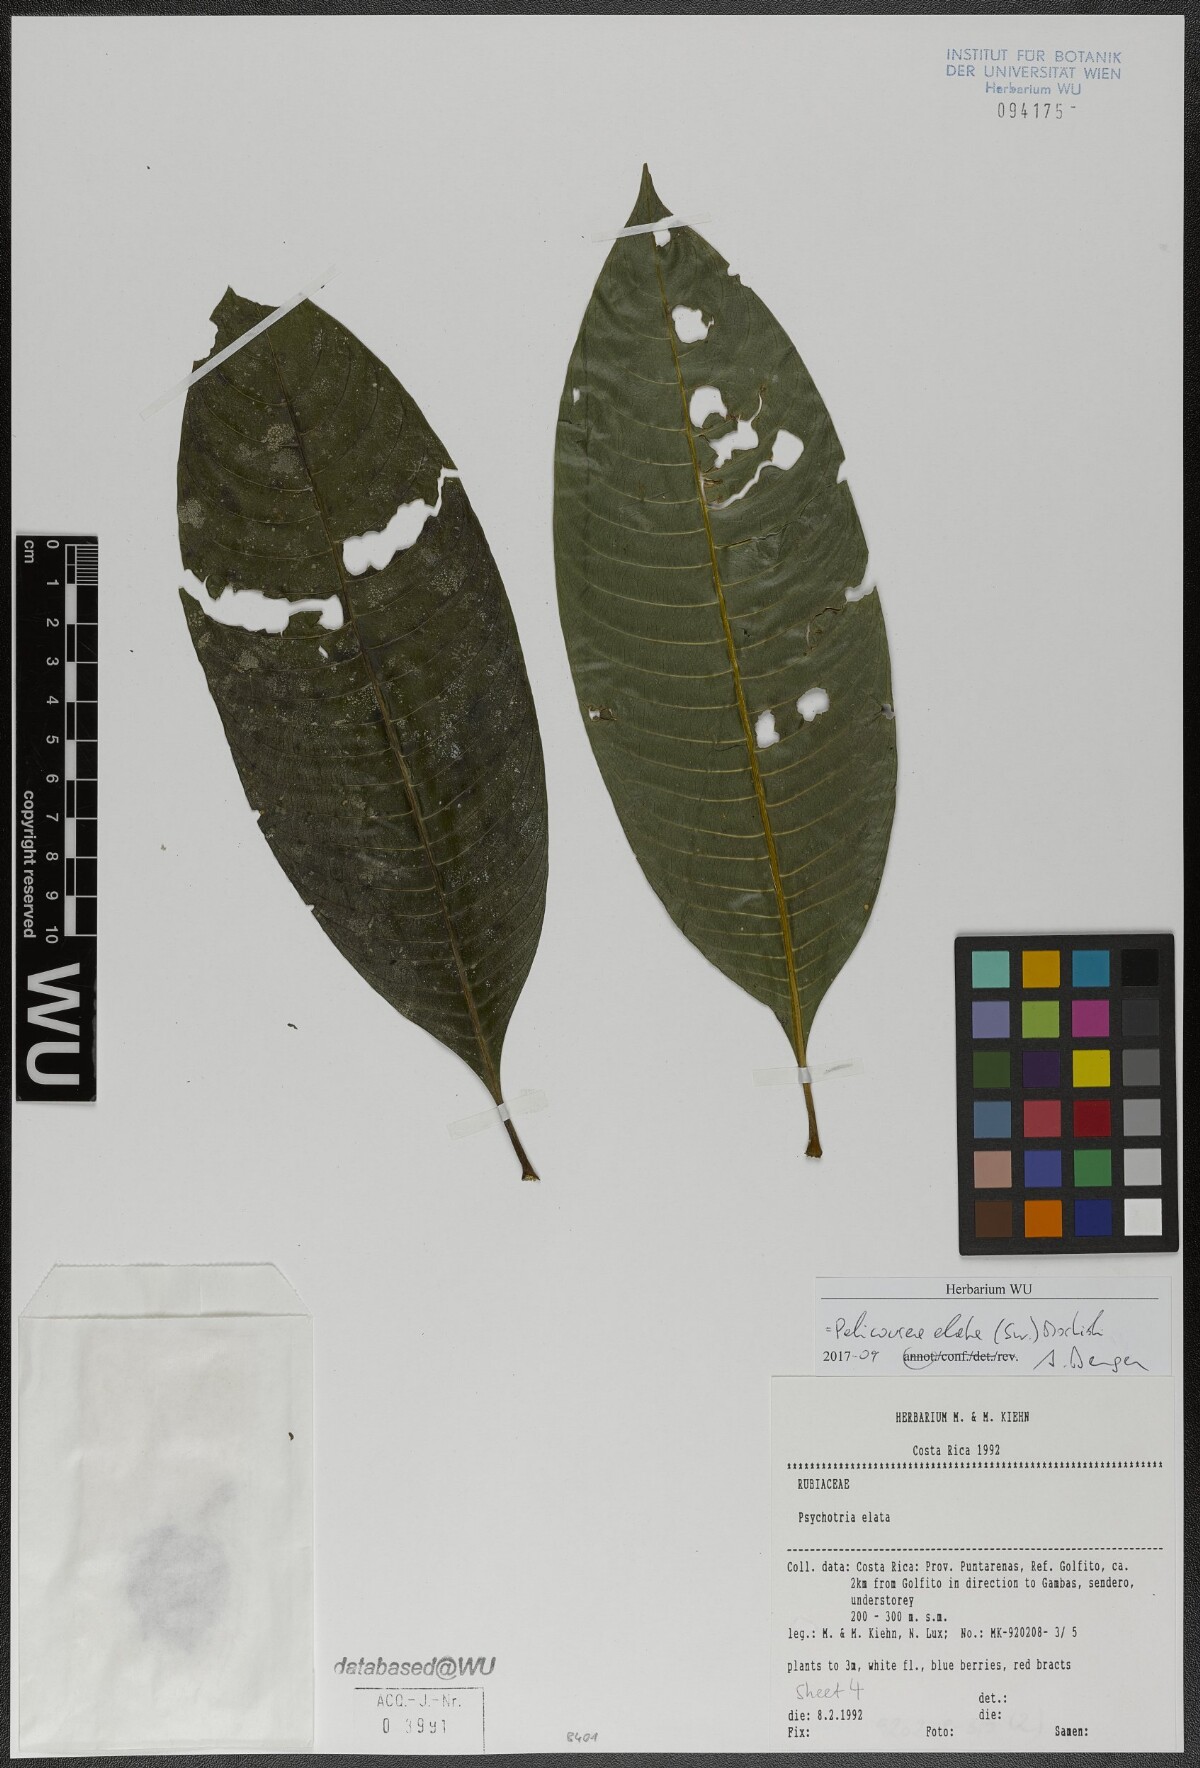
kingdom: Plantae
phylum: Tracheophyta
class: Magnoliopsida
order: Gentianales
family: Rubiaceae
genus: Palicourea
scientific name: Palicourea elata
